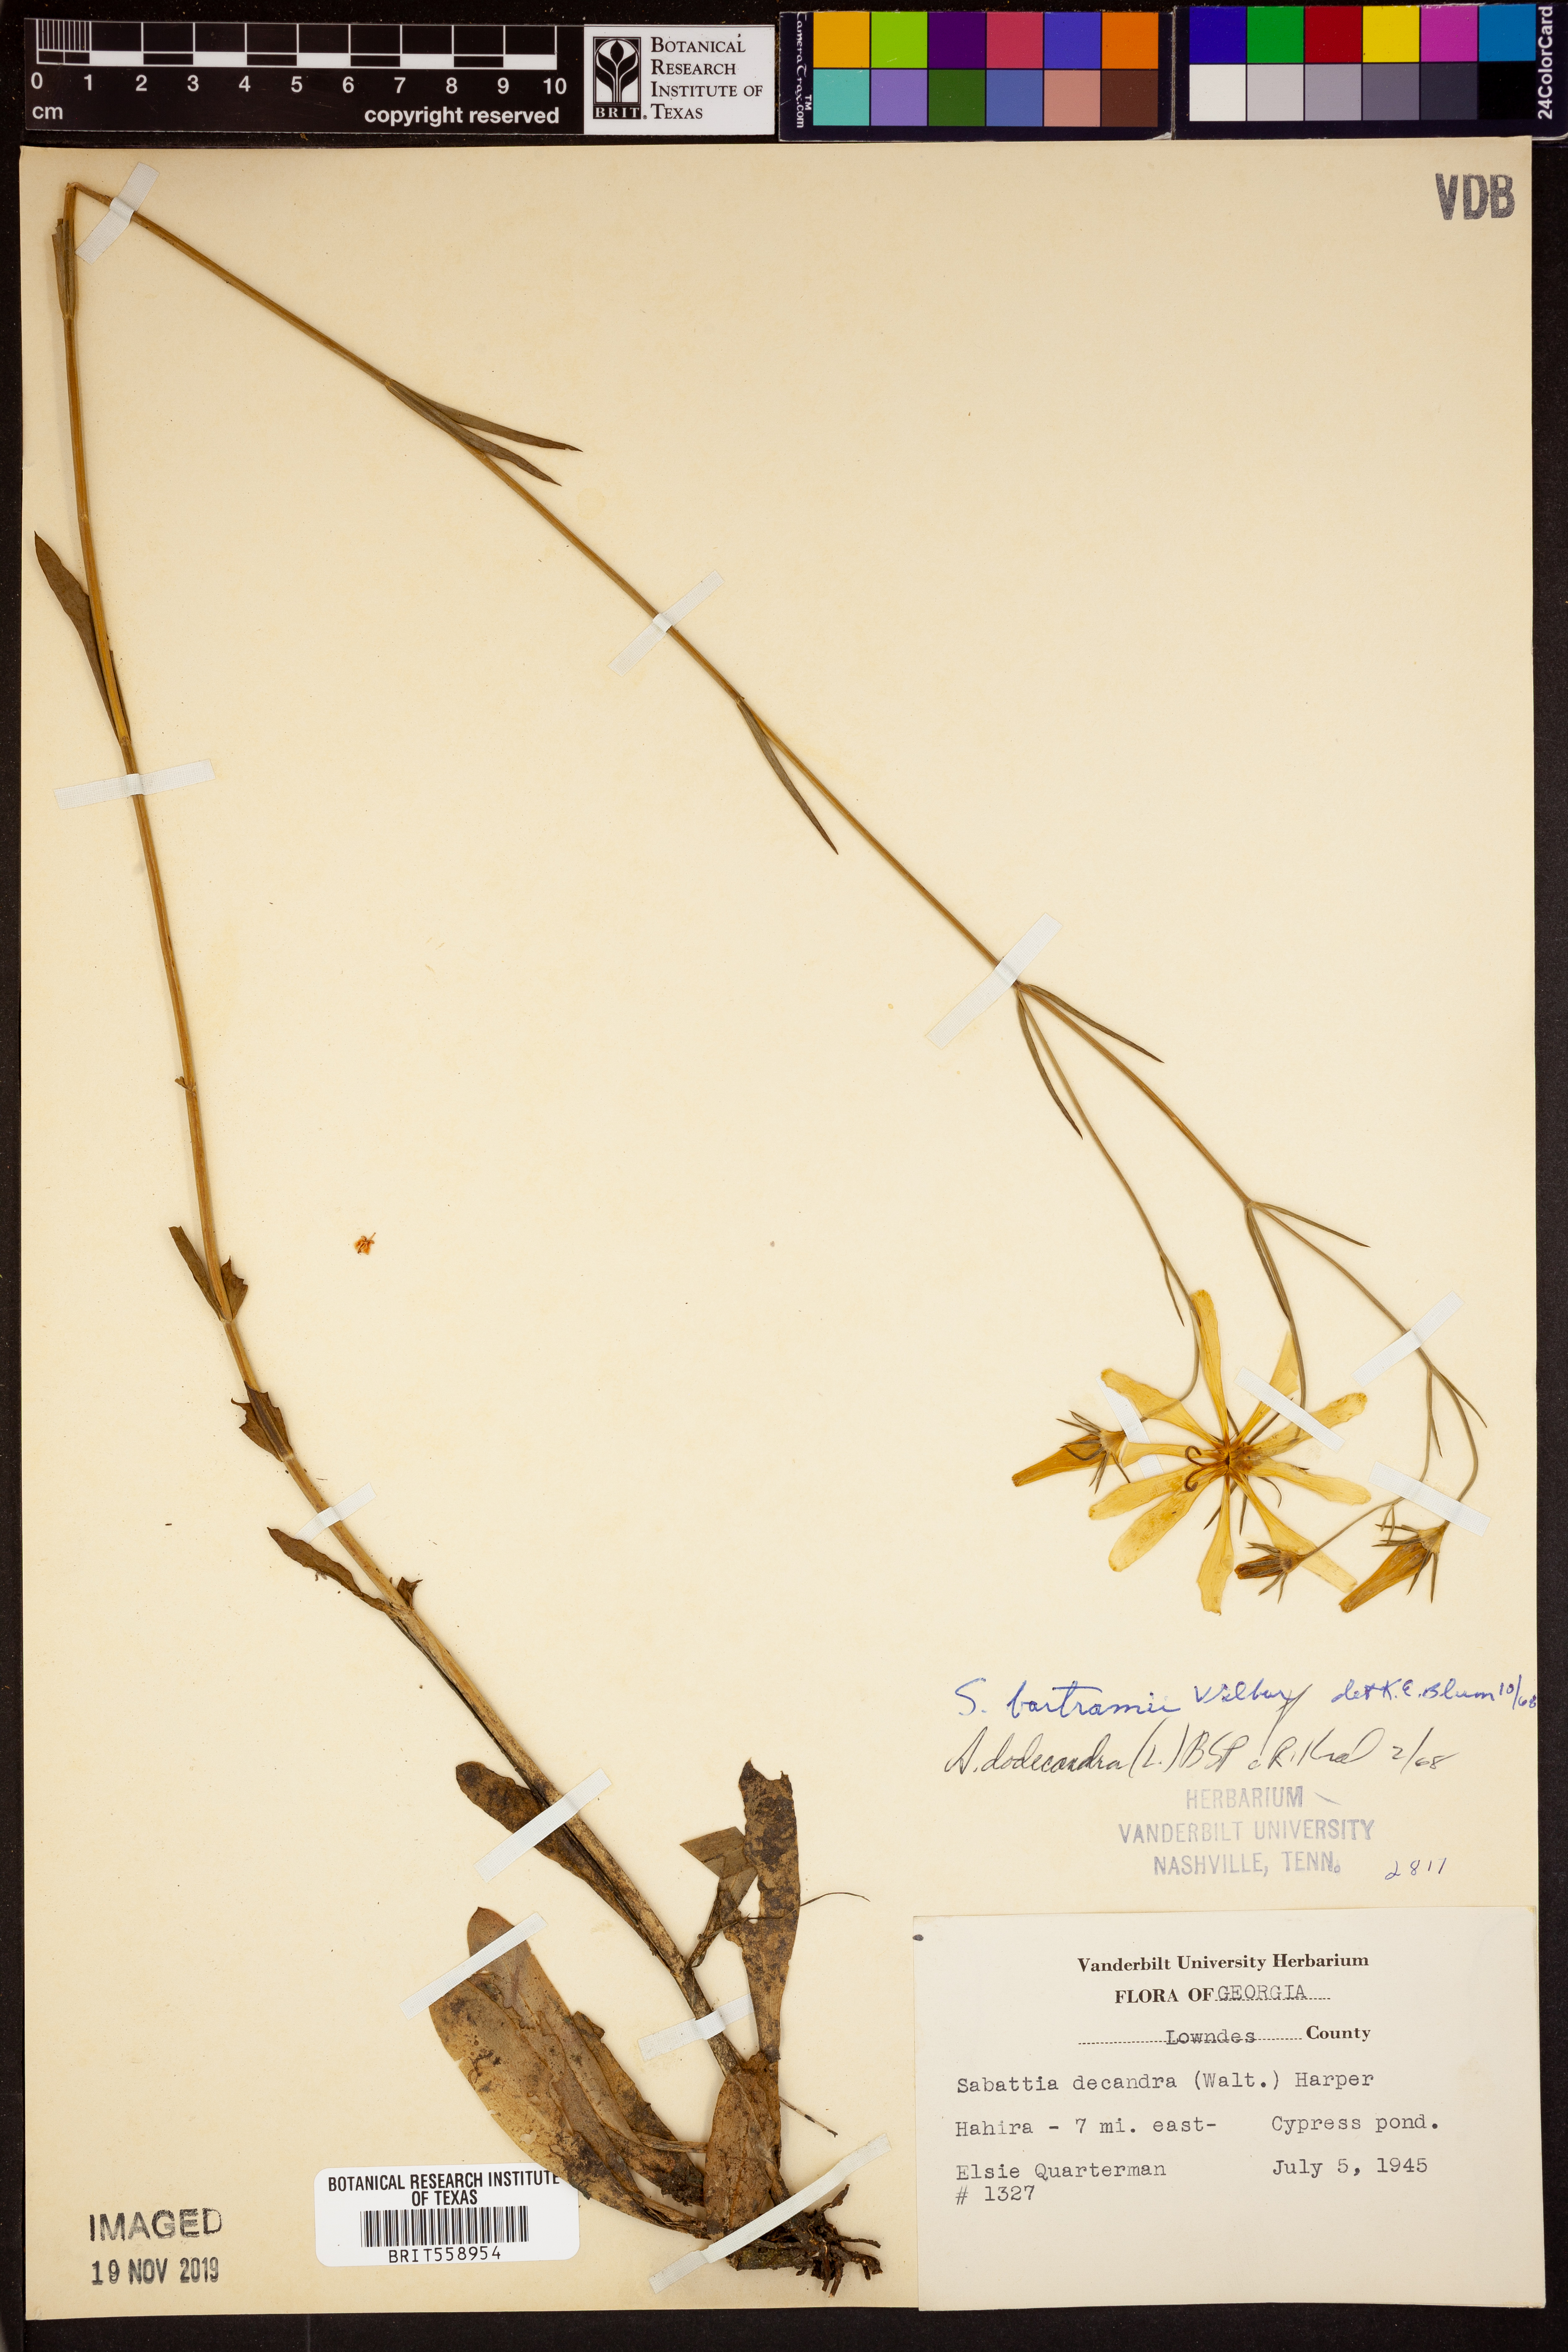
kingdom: Plantae
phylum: Tracheophyta
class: Magnoliopsida
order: Gentianales
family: Gentianaceae
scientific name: Gentianaceae
